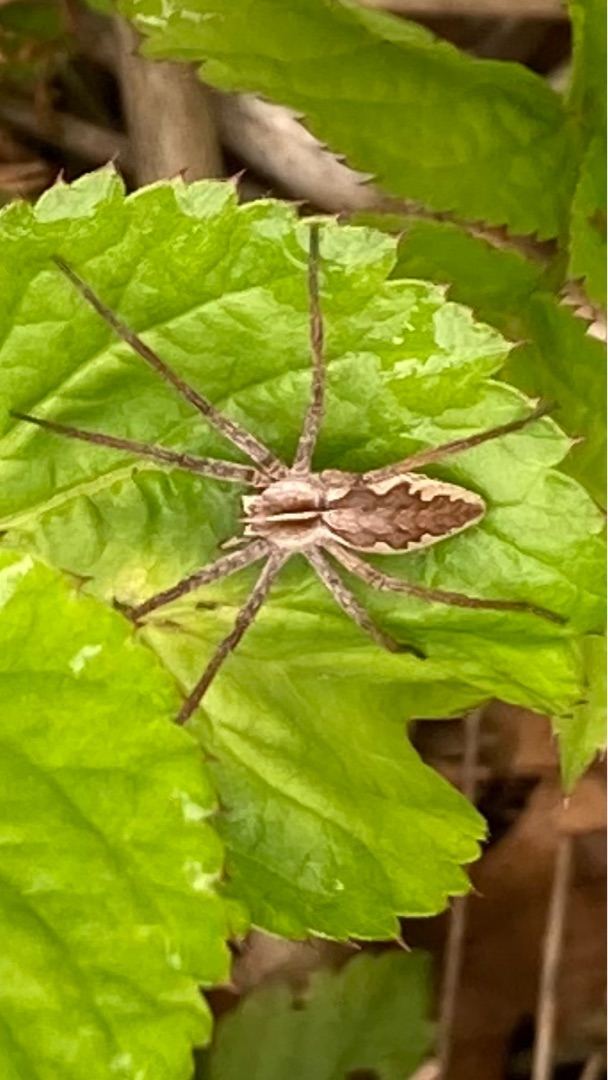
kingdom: Animalia
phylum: Arthropoda
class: Arachnida
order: Araneae
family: Pisauridae
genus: Pisaura
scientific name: Pisaura mirabilis
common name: Almindelig rovedderkop
